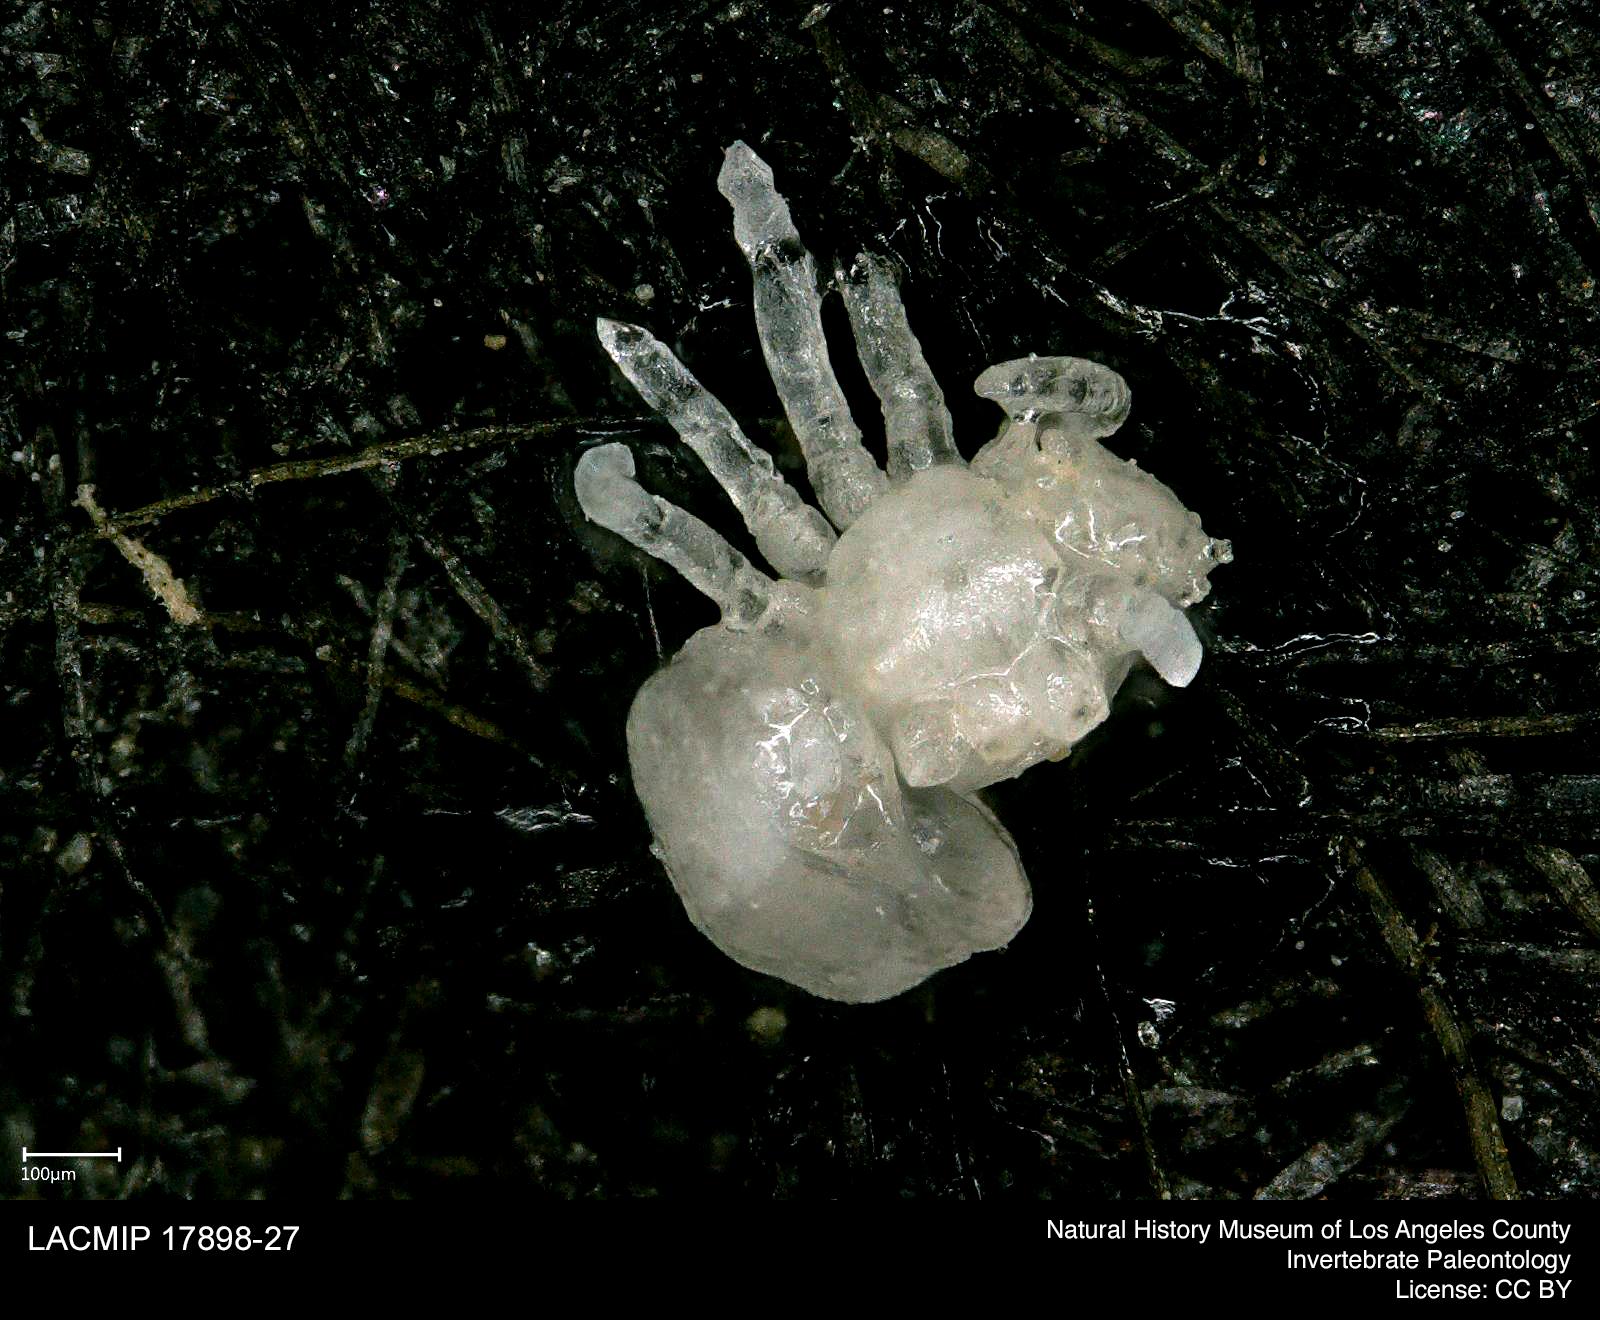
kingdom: Animalia
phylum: Arthropoda
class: Arachnida
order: Araneae
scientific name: Araneae
